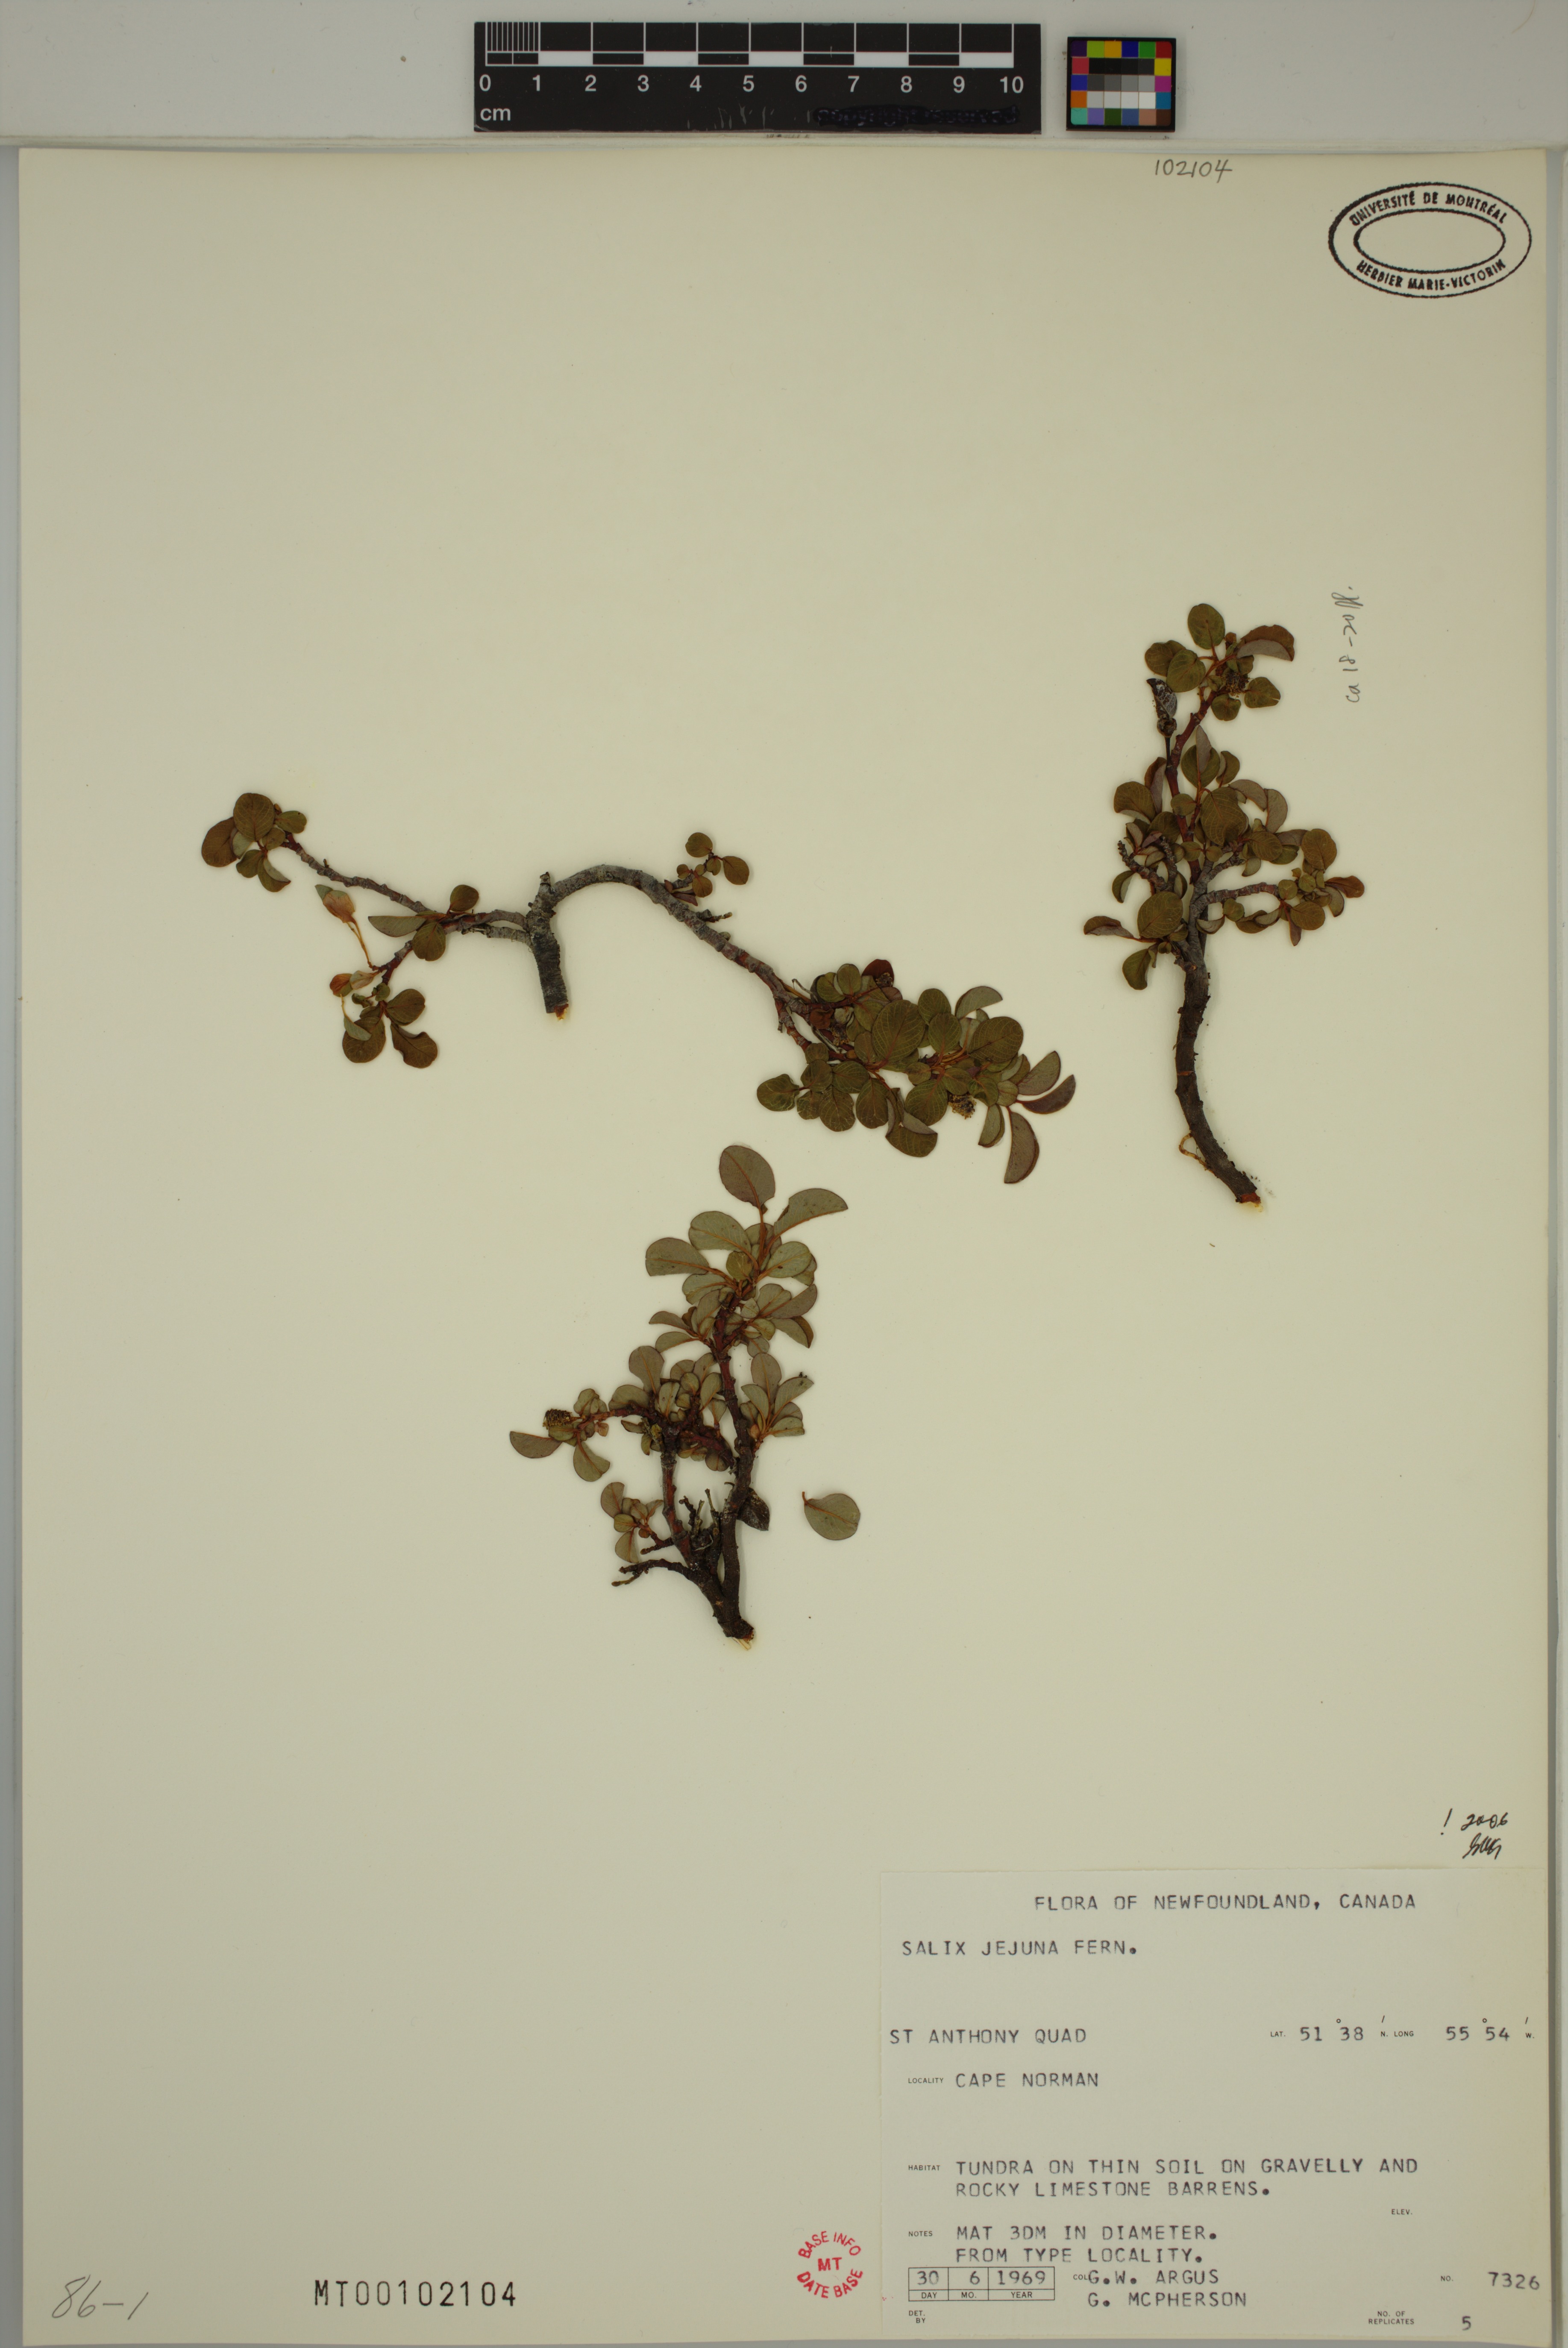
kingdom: Plantae
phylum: Tracheophyta
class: Magnoliopsida
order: Malpighiales
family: Salicaceae
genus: Salix
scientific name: Salix jejuna
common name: Belle isle dwarf willow
